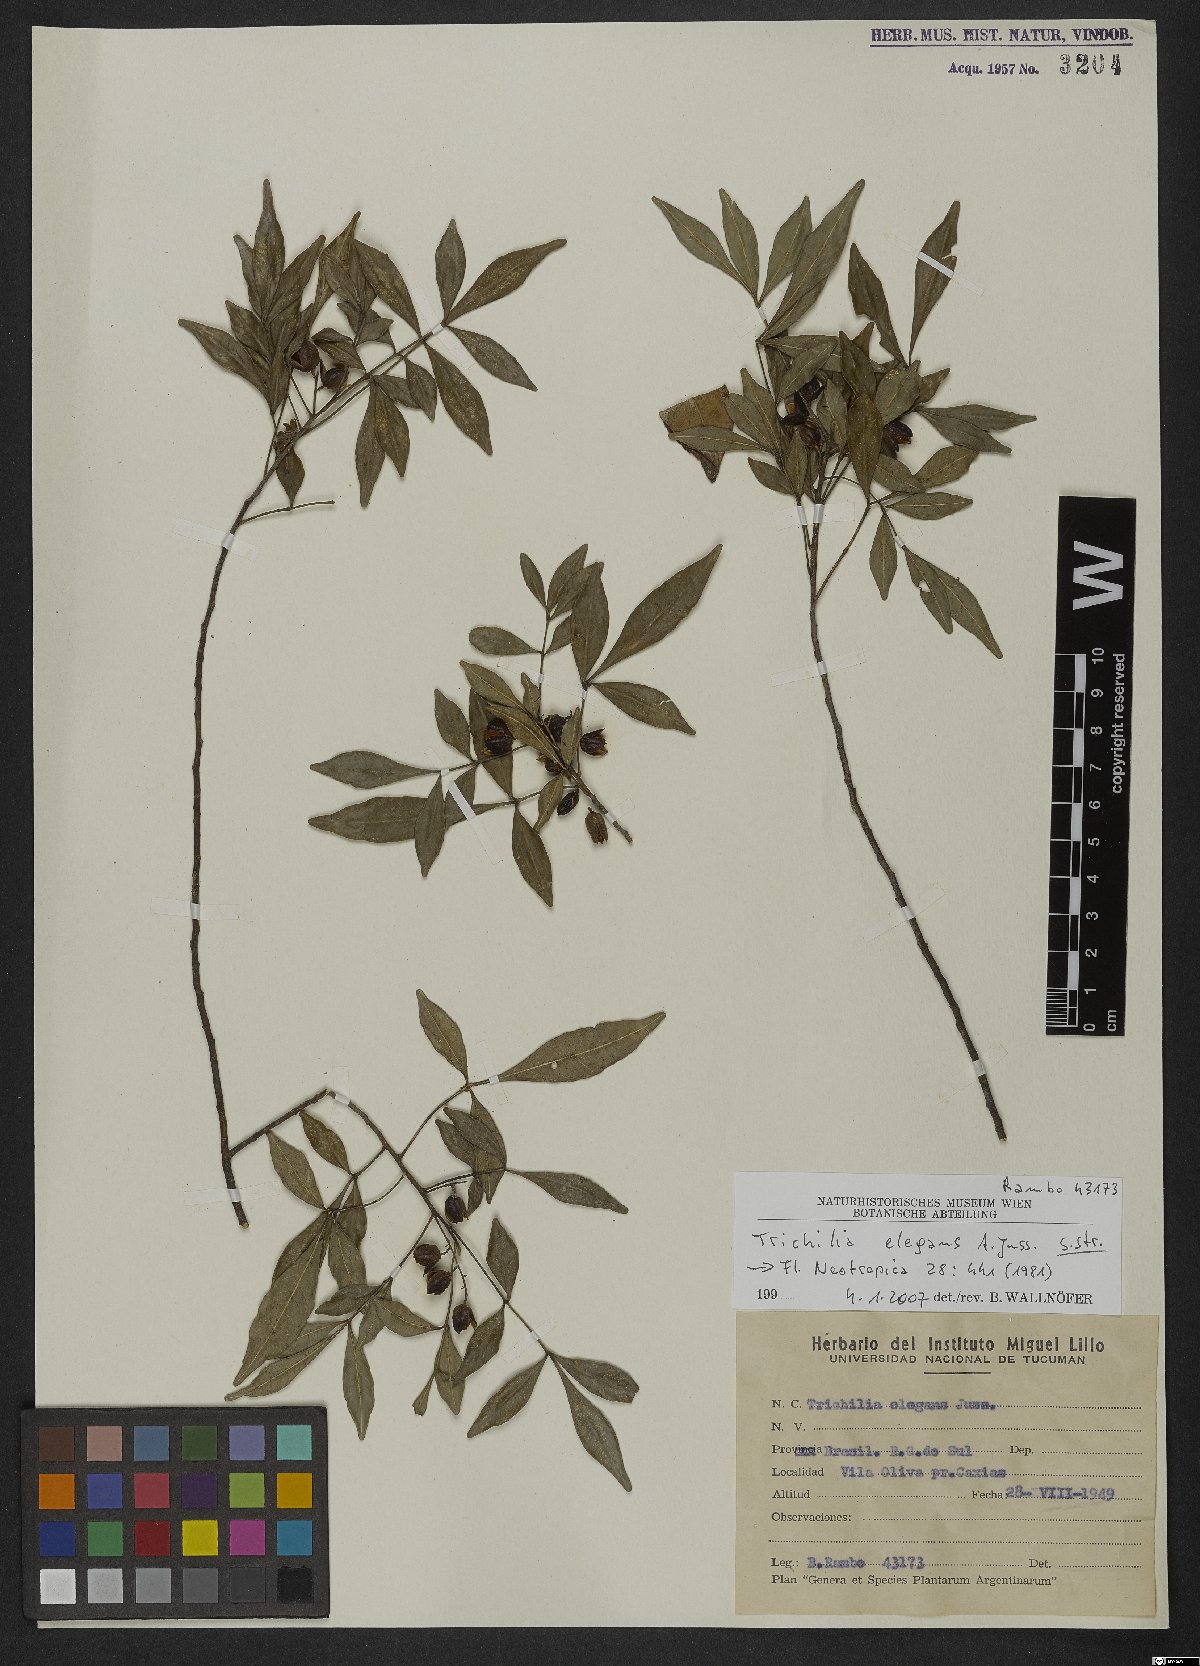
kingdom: Plantae
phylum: Tracheophyta
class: Magnoliopsida
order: Sapindales
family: Meliaceae
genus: Trichilia
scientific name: Trichilia elegans
